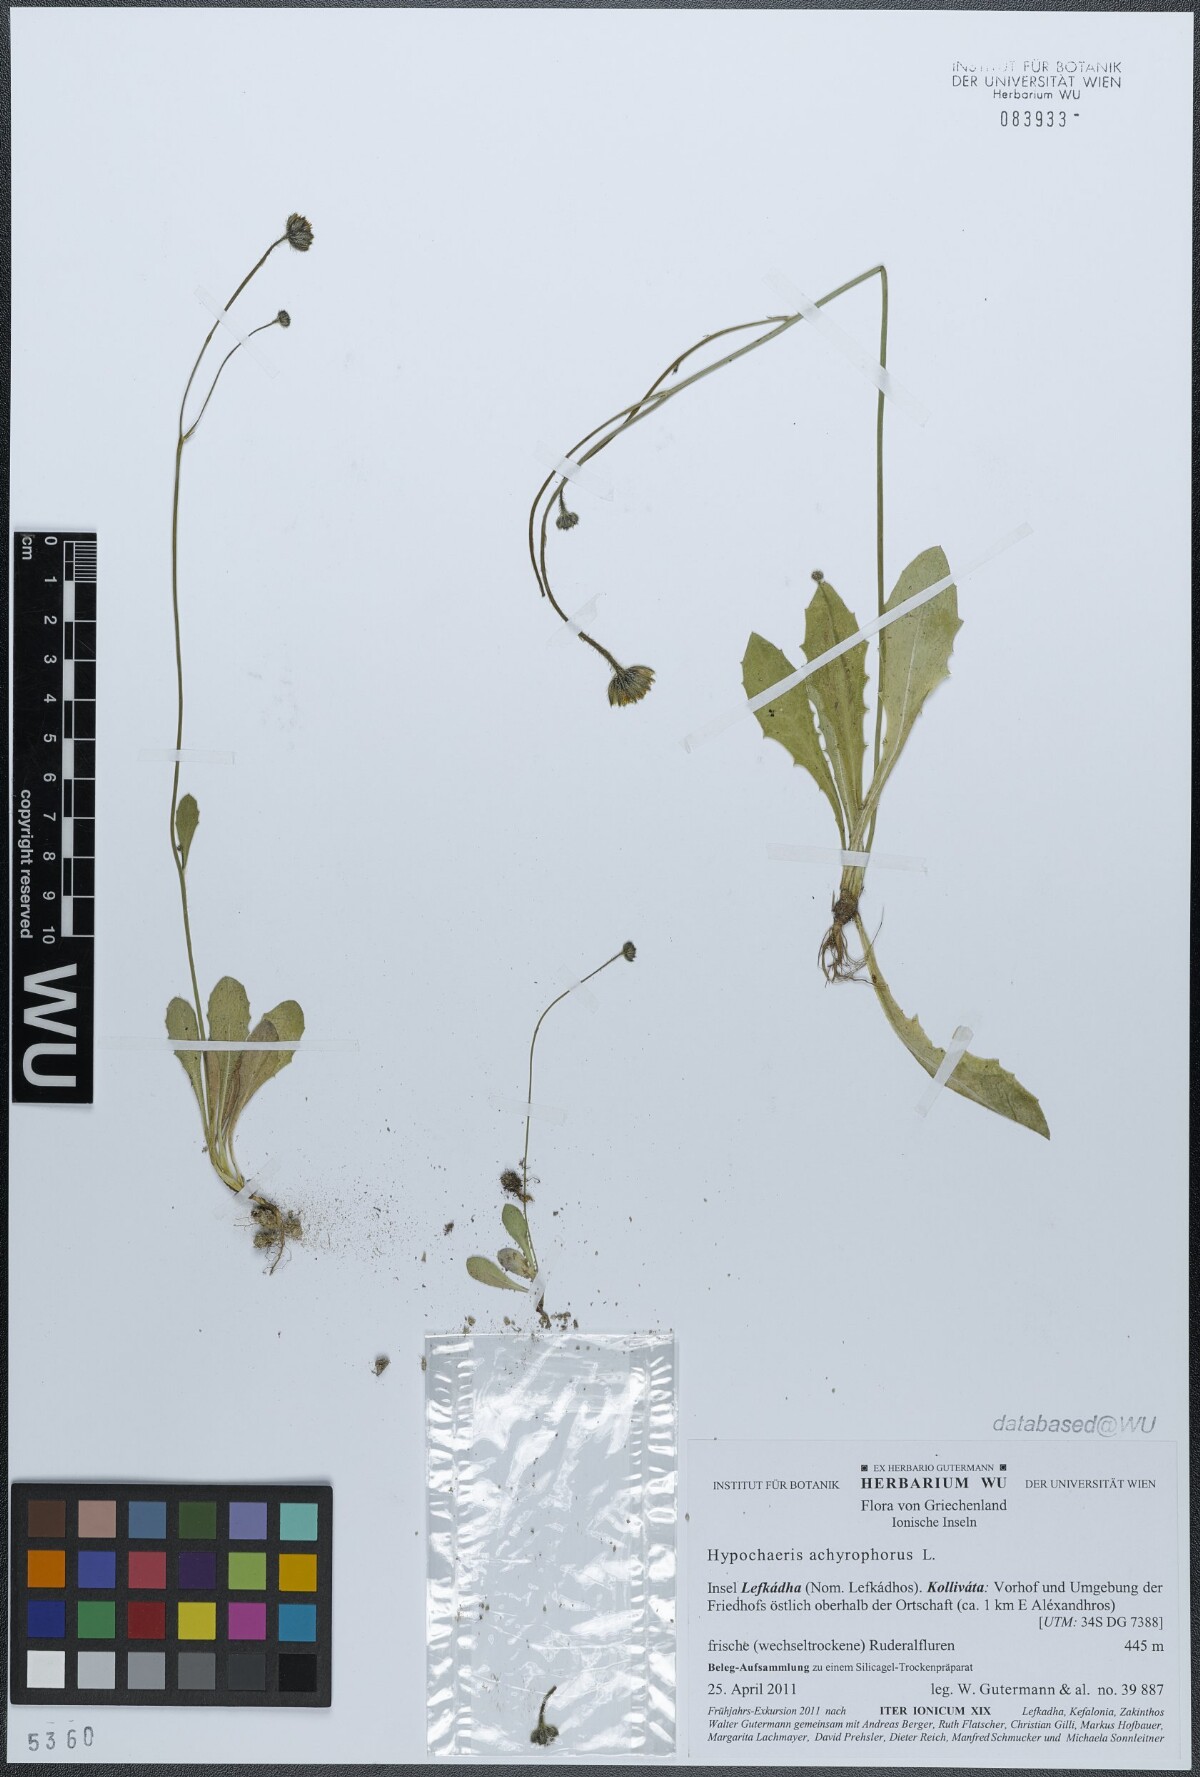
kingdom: Plantae
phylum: Tracheophyta
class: Magnoliopsida
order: Asterales
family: Asteraceae
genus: Achyrophorus
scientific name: Achyrophorus valdesii
